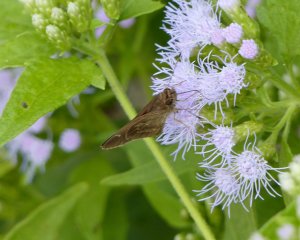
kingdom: Animalia
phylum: Arthropoda
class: Insecta
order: Lepidoptera
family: Hesperiidae
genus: Lerema
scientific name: Lerema accius
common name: Clouded Skipper
